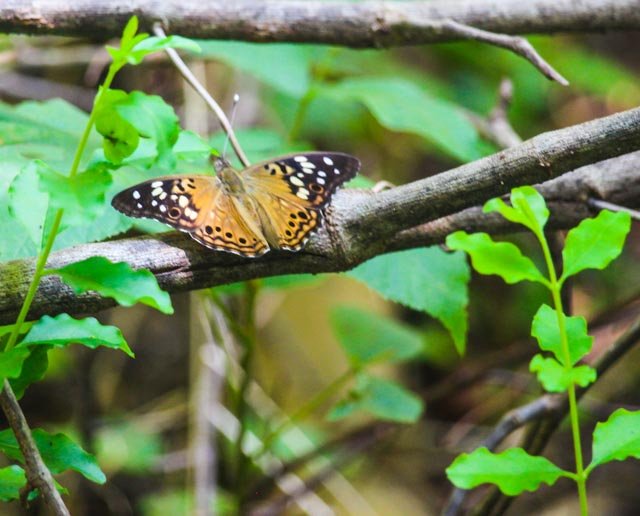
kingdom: Animalia
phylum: Arthropoda
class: Insecta
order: Lepidoptera
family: Nymphalidae
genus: Asterocampa
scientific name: Asterocampa celtis
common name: Hackberry Emperor
